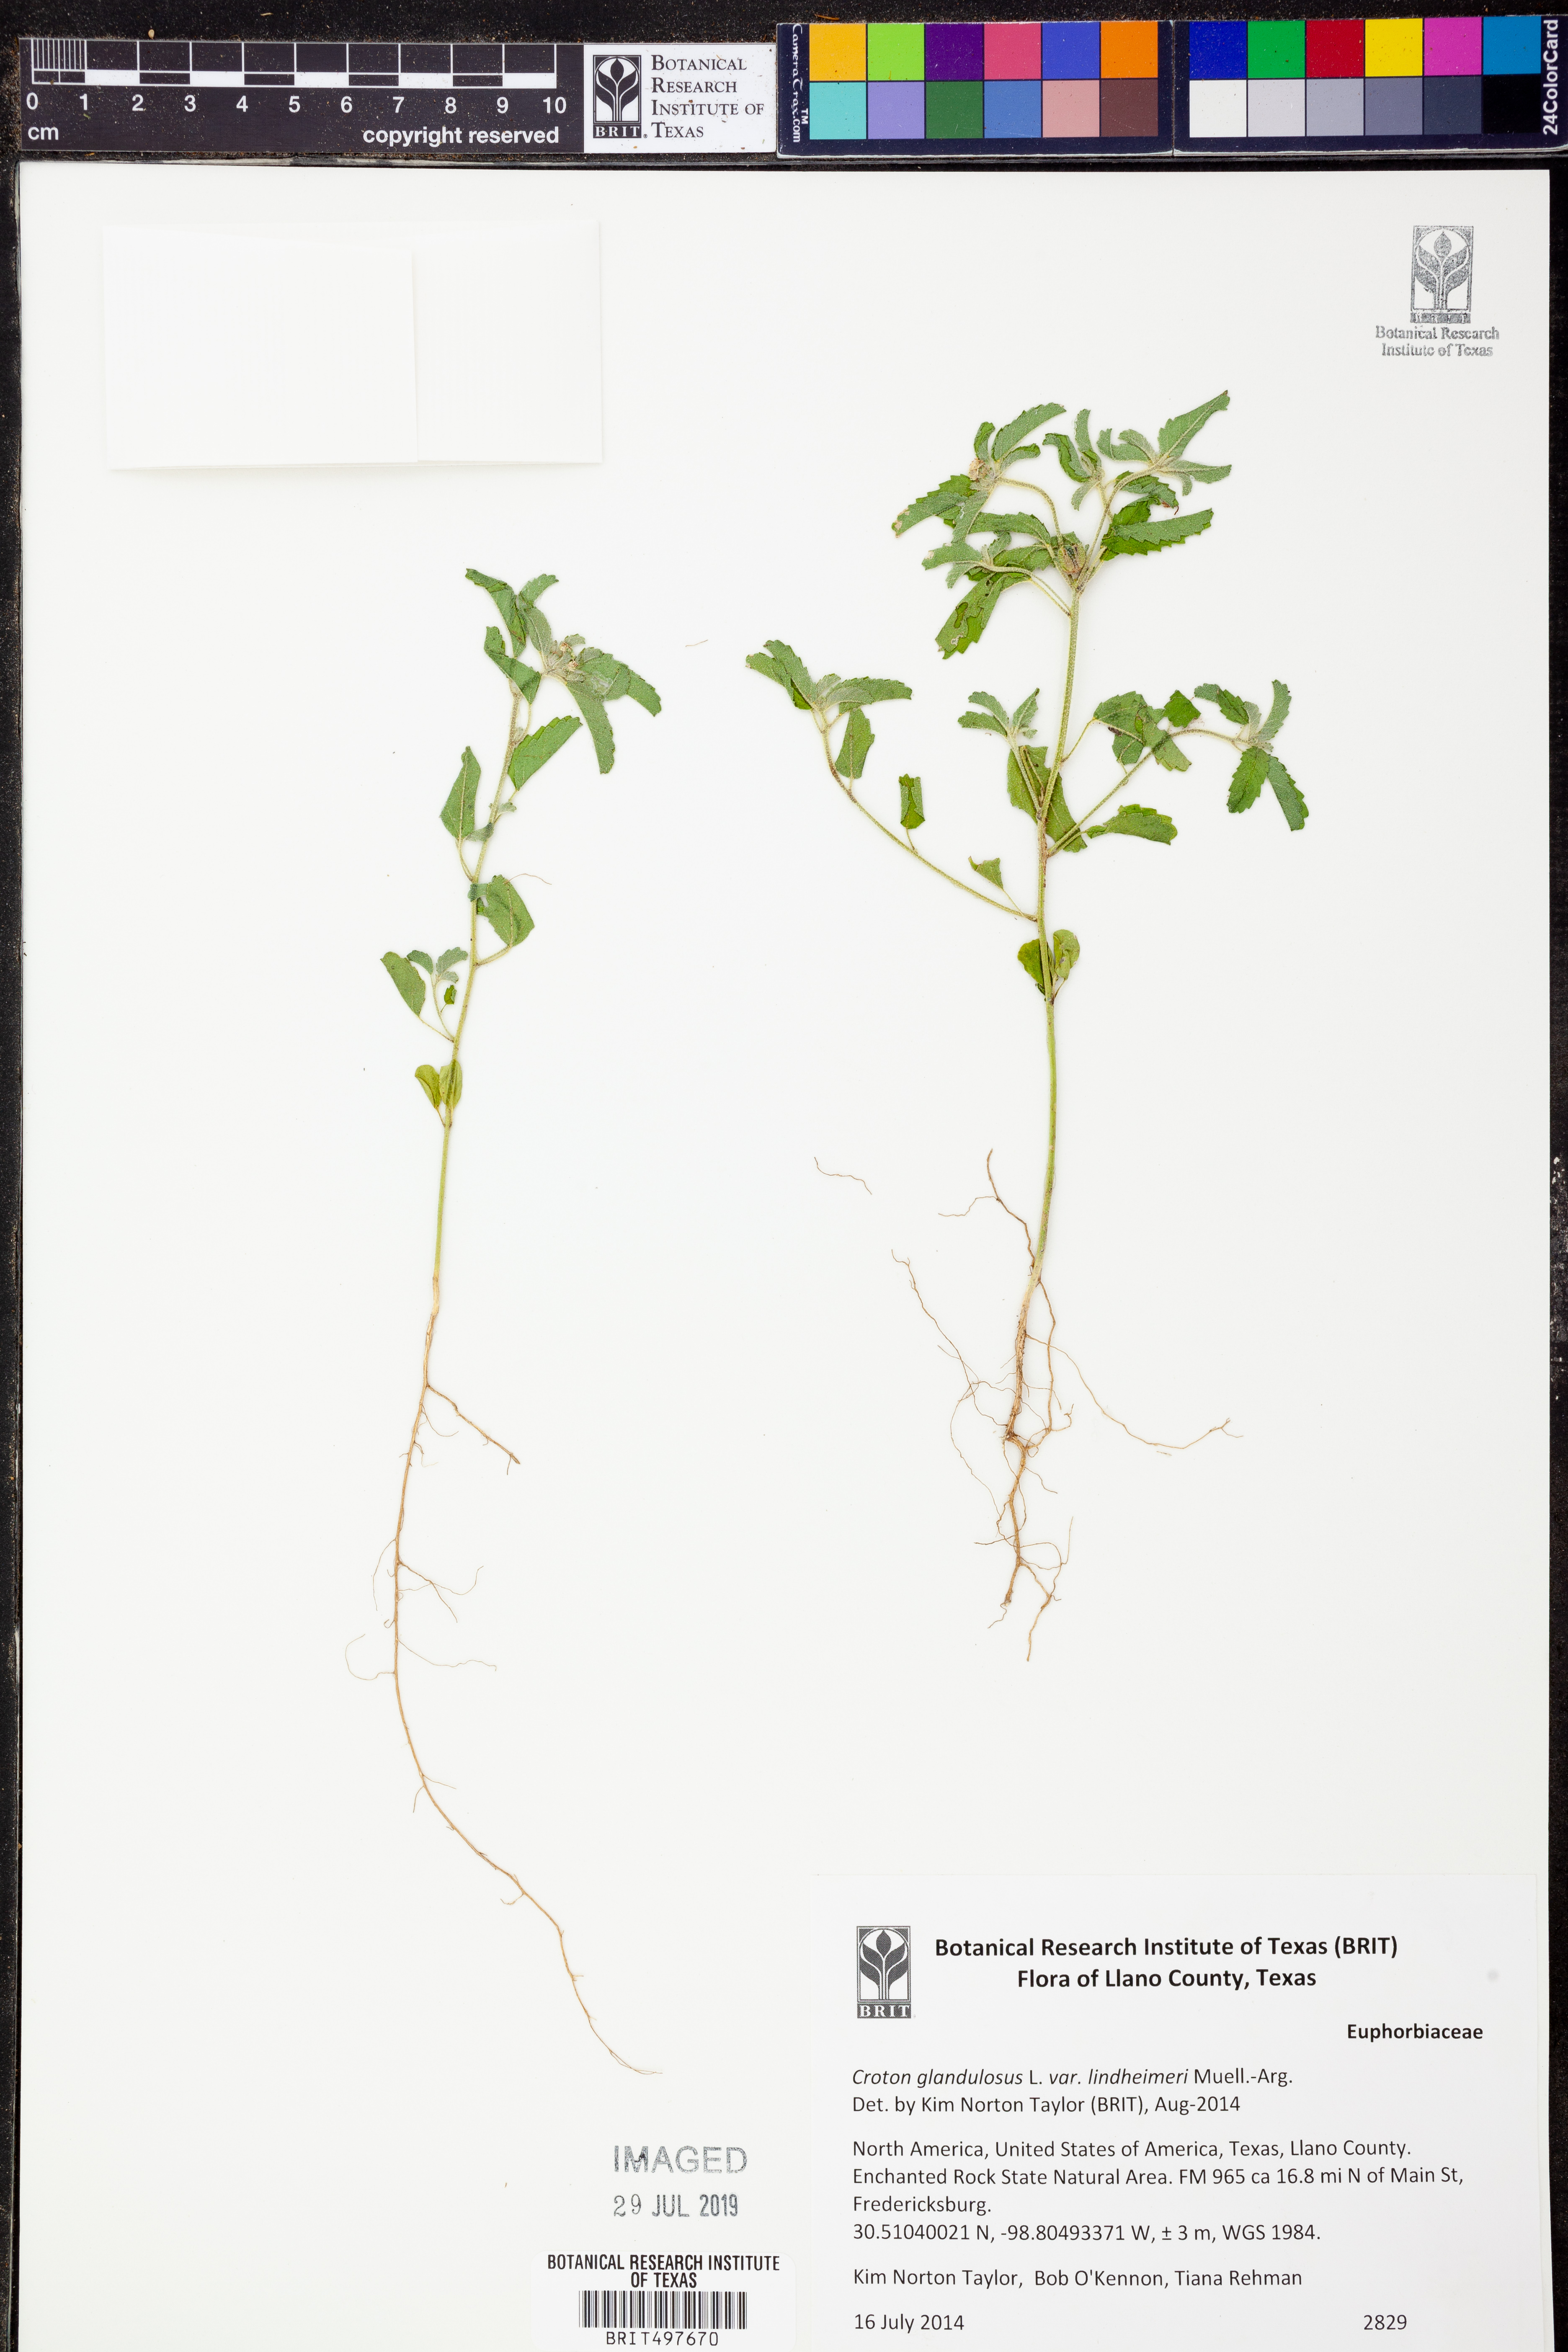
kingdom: Plantae
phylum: Tracheophyta
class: Magnoliopsida
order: Malpighiales
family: Euphorbiaceae
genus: Croton
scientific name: Croton glandulosus
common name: Tropic croton
